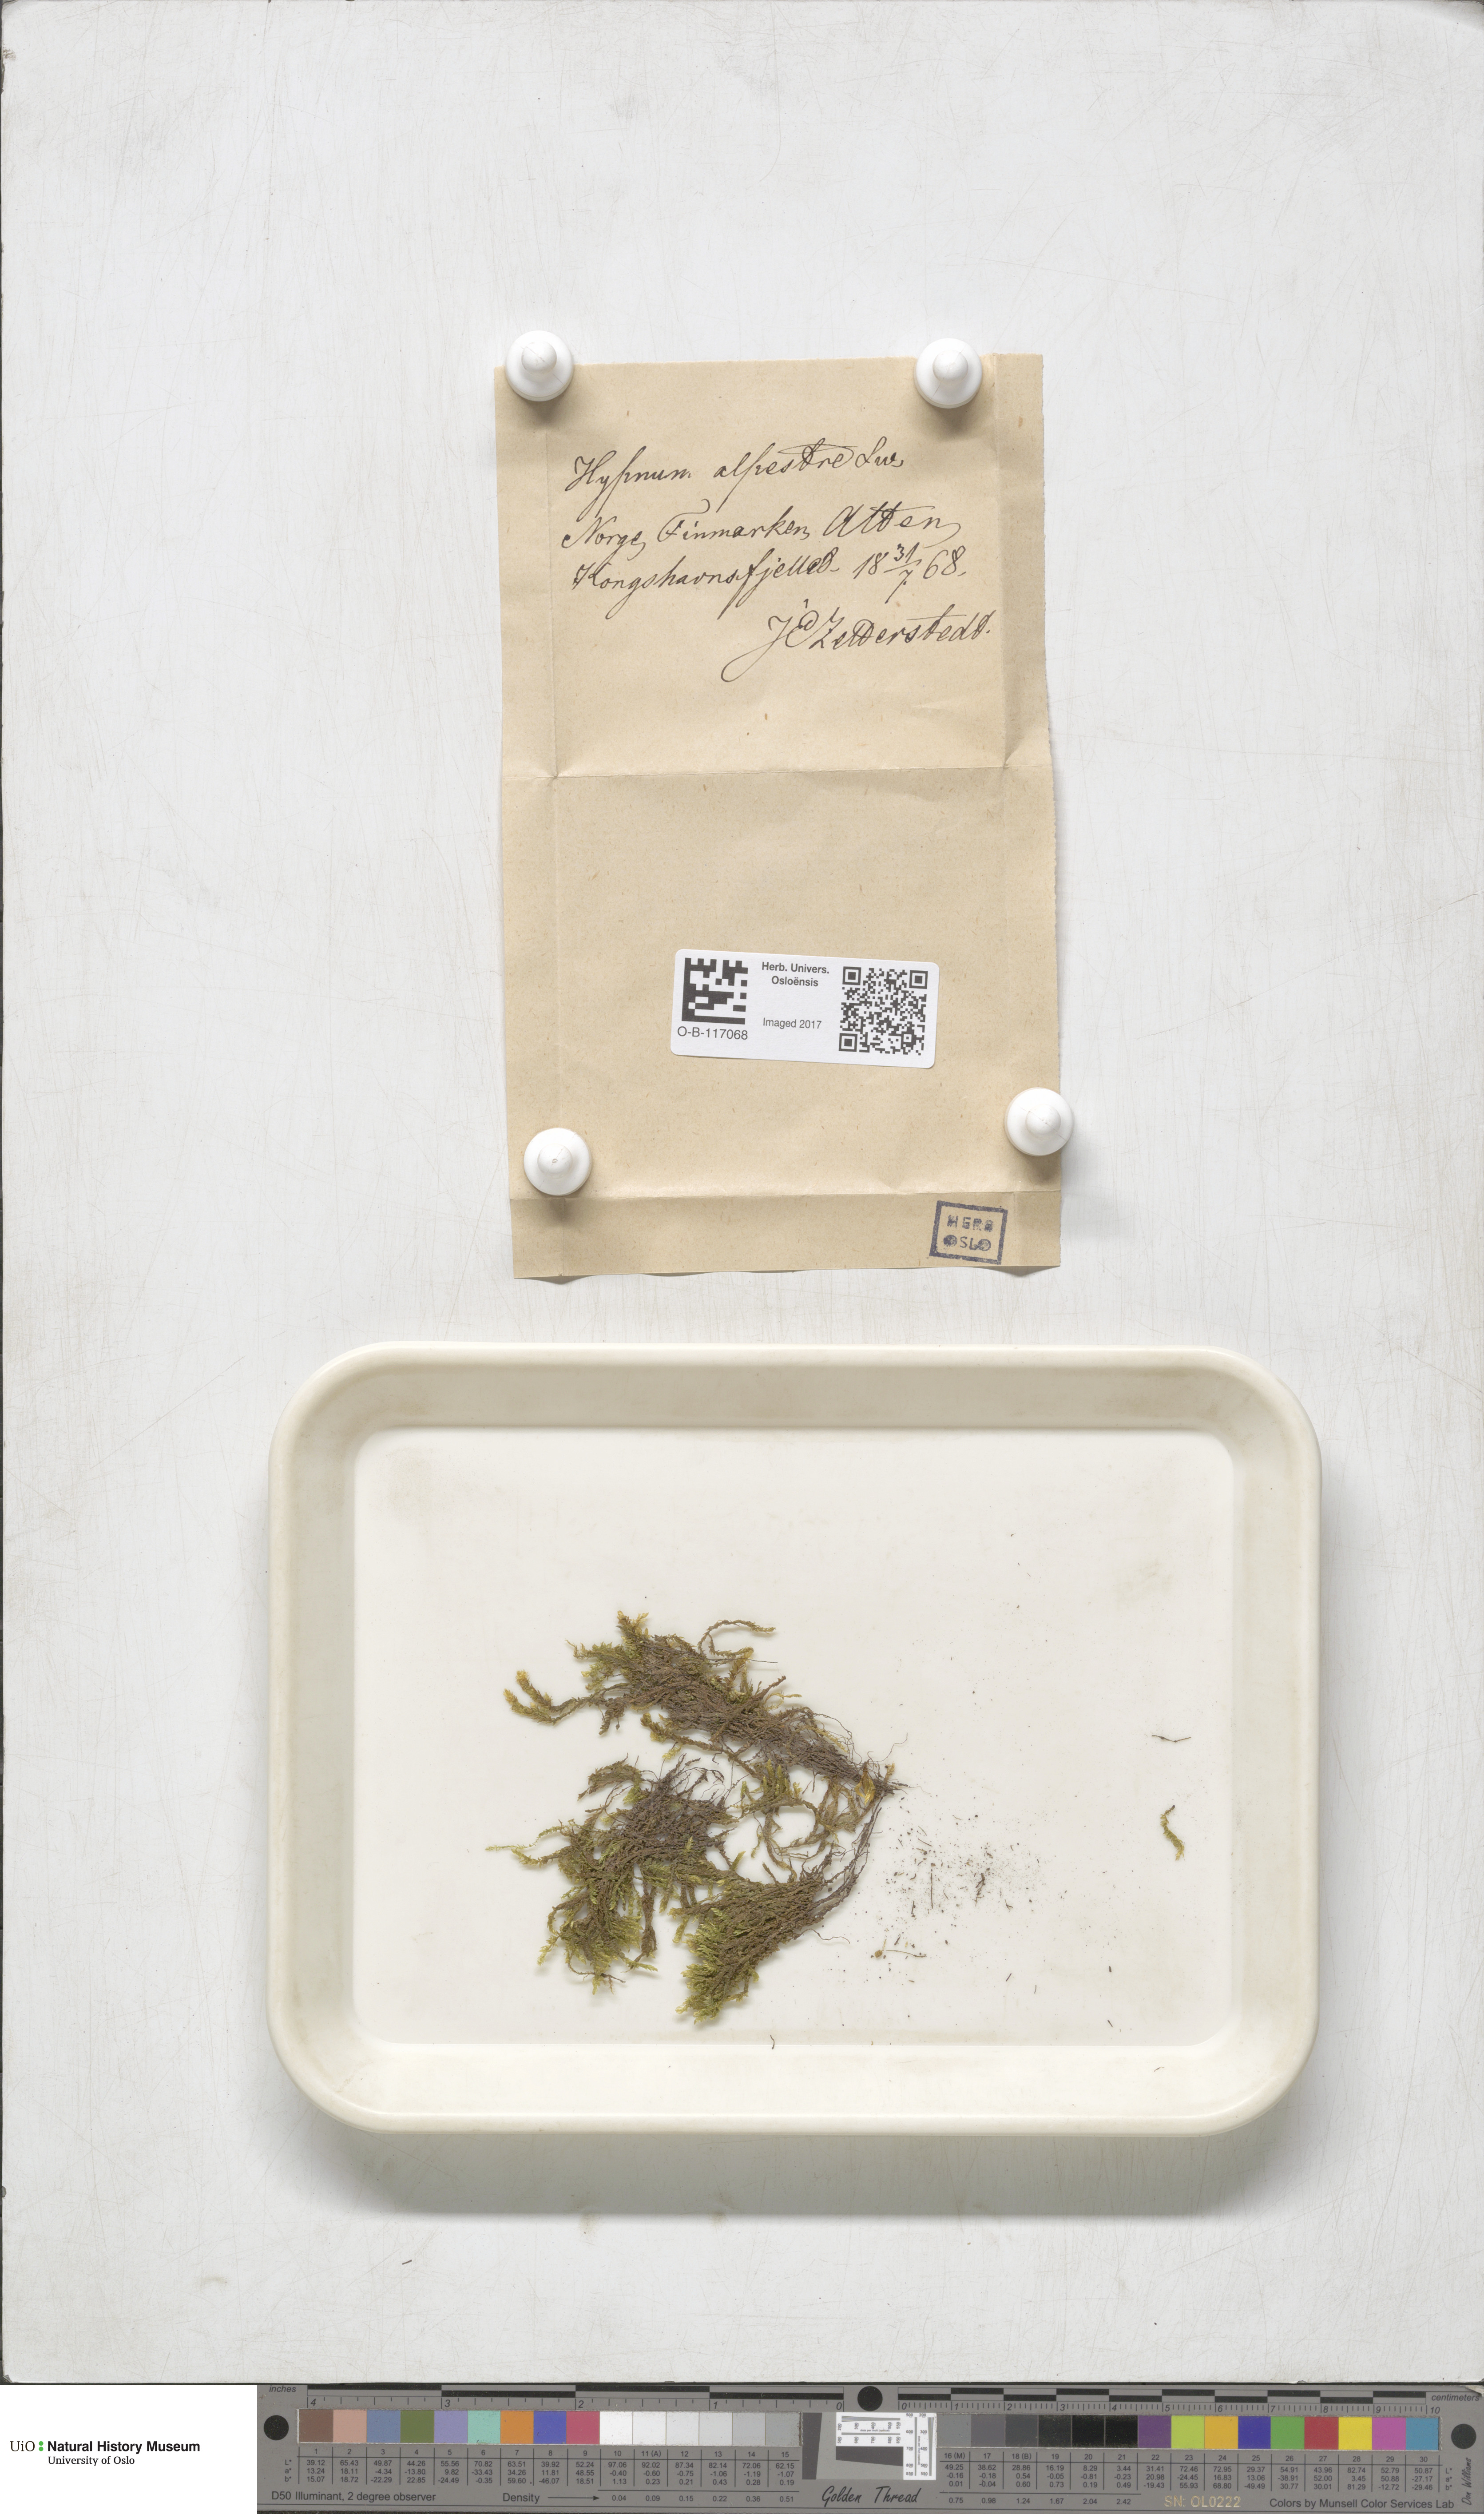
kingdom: Plantae
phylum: Bryophyta
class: Bryopsida
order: Hypnales
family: Amblystegiaceae
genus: Platyhypnum
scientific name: Platyhypnum alpestre
